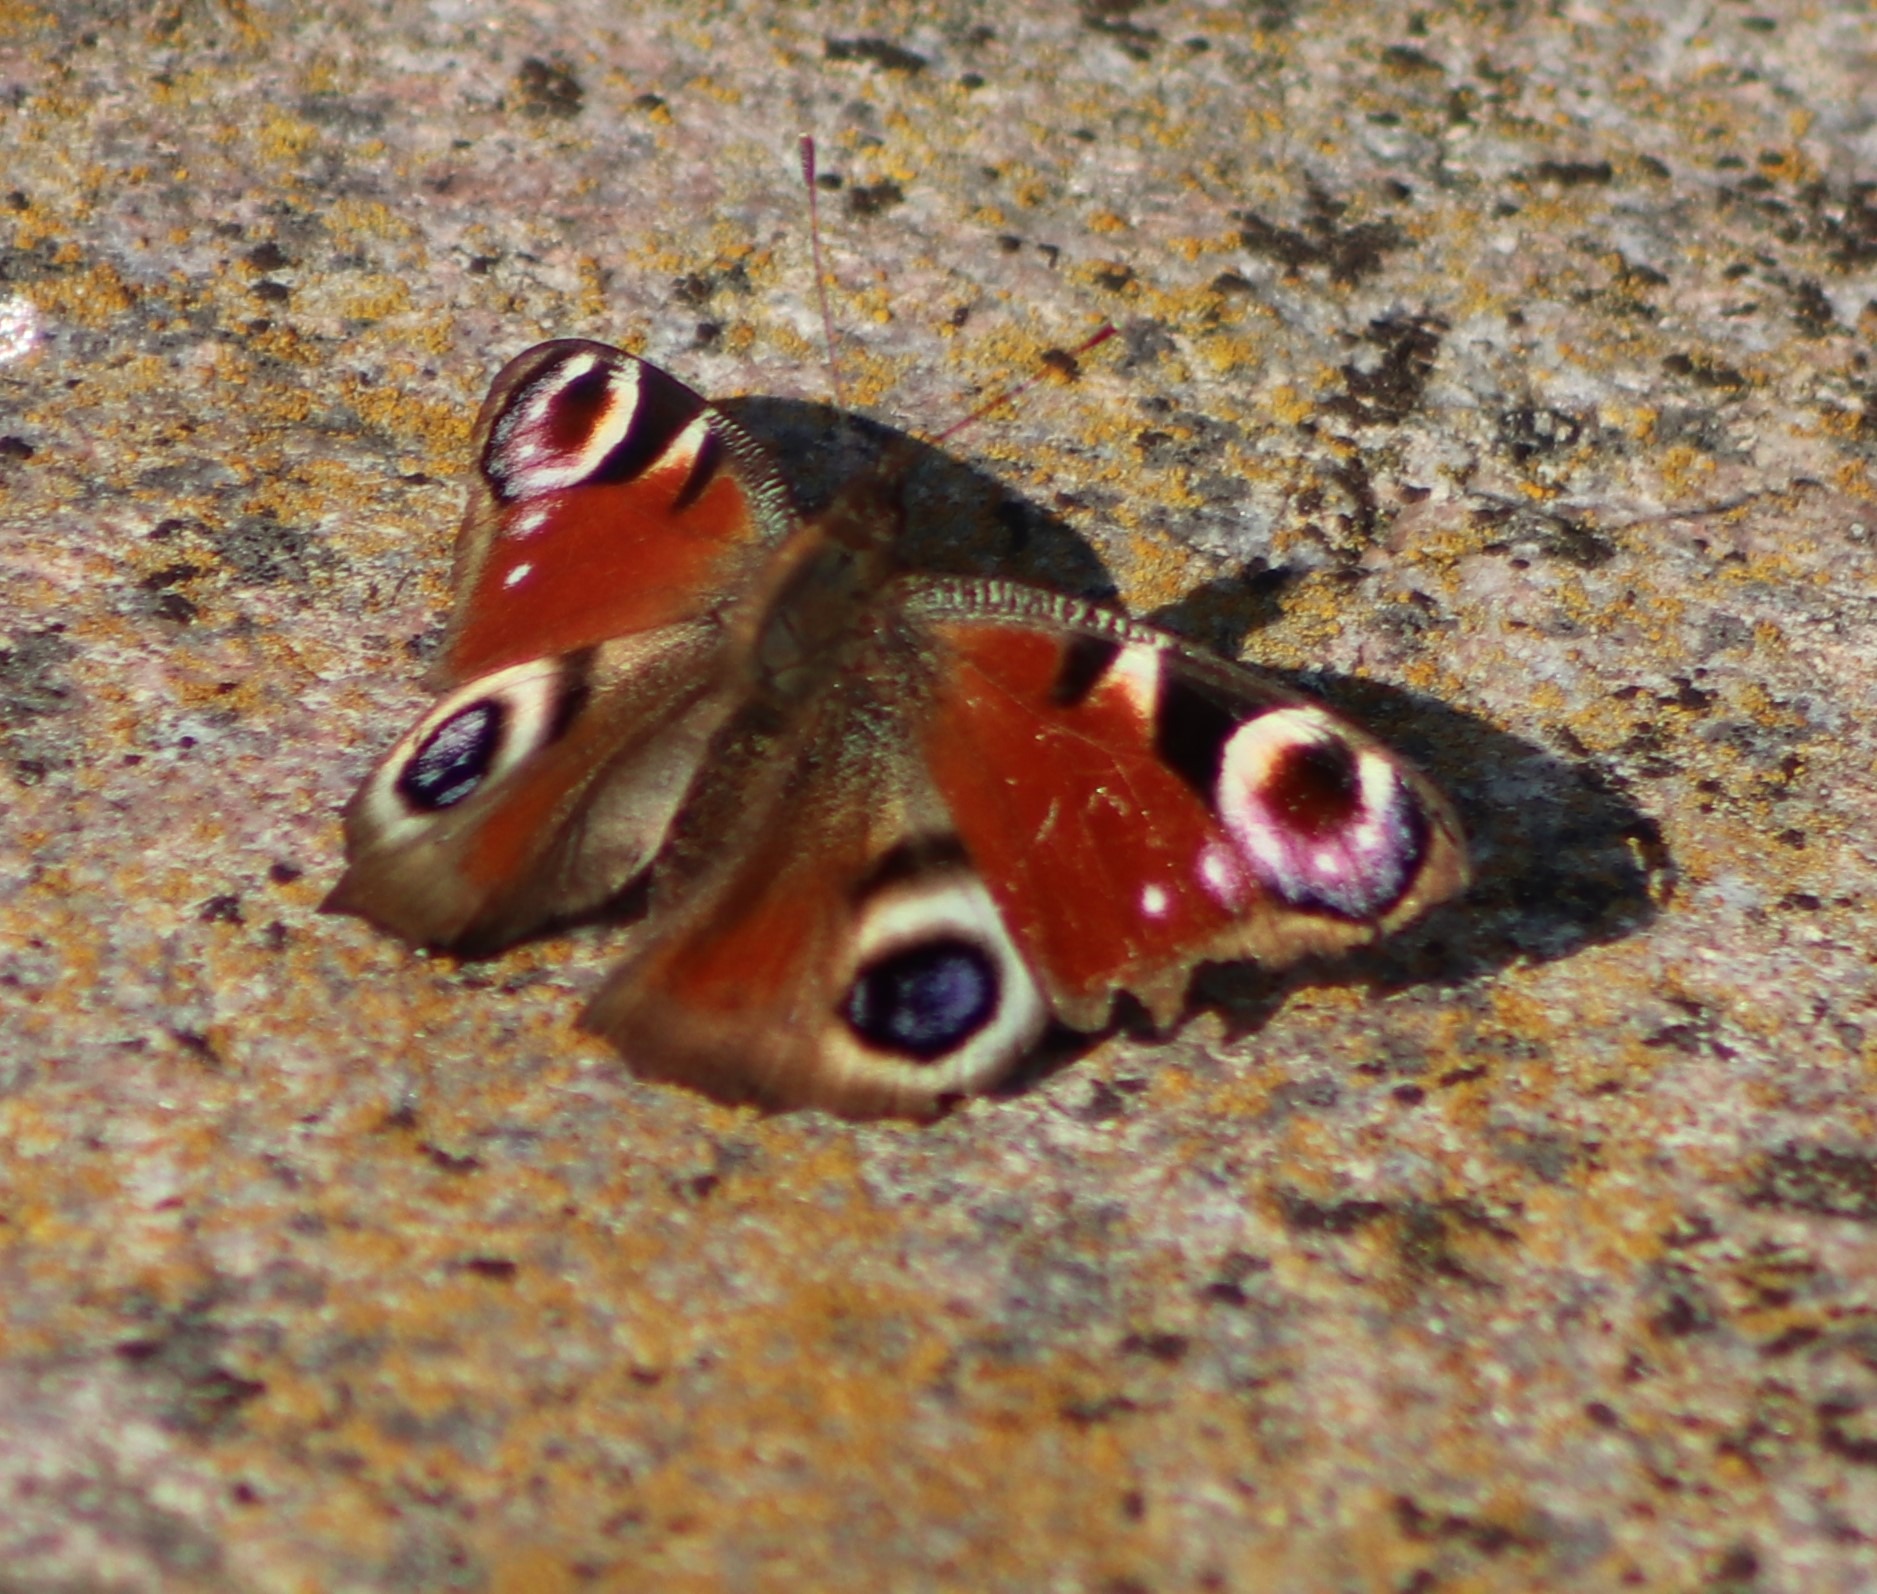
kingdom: Animalia
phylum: Arthropoda
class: Insecta
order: Lepidoptera
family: Nymphalidae
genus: Aglais
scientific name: Aglais io
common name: Dagpåfugleøje
